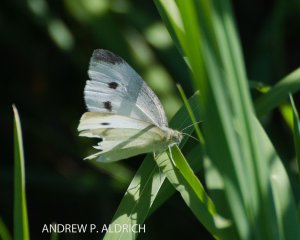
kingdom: Animalia
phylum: Arthropoda
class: Insecta
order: Lepidoptera
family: Pieridae
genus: Pieris
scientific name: Pieris rapae
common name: Cabbage White
